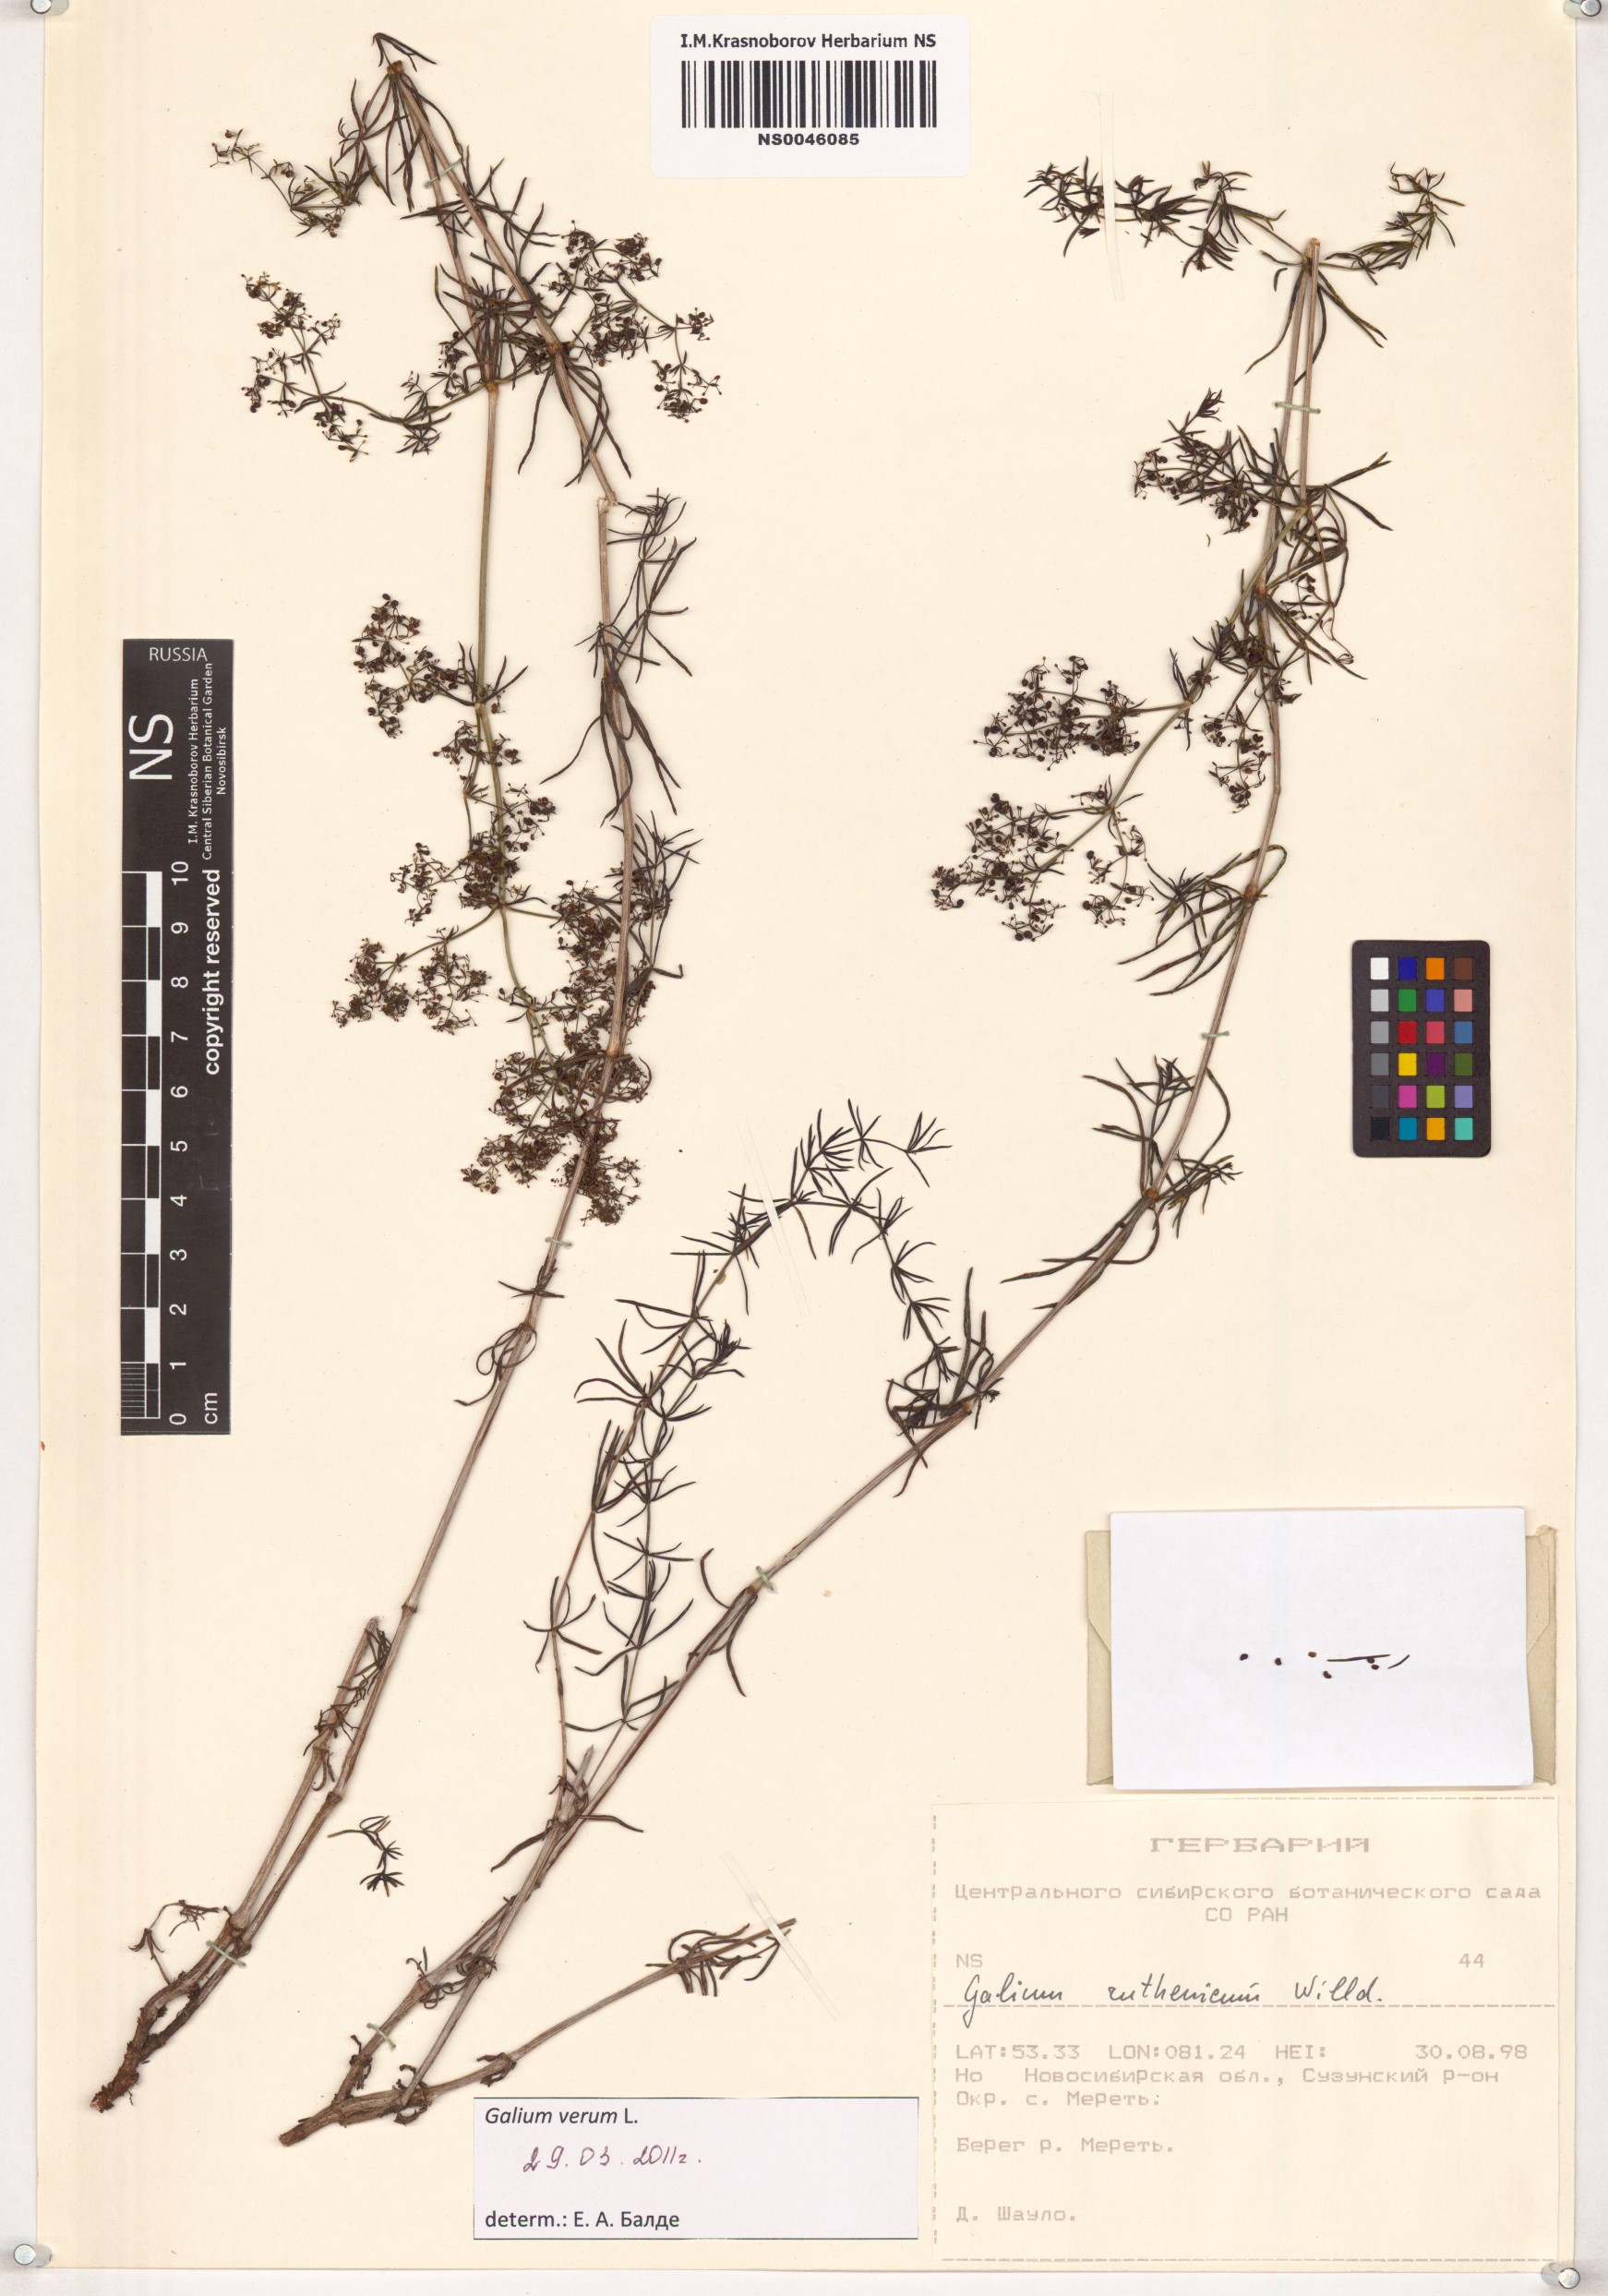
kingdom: Plantae
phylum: Tracheophyta
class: Magnoliopsida
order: Gentianales
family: Rubiaceae
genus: Galium
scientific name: Galium verum
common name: Lady's bedstraw
